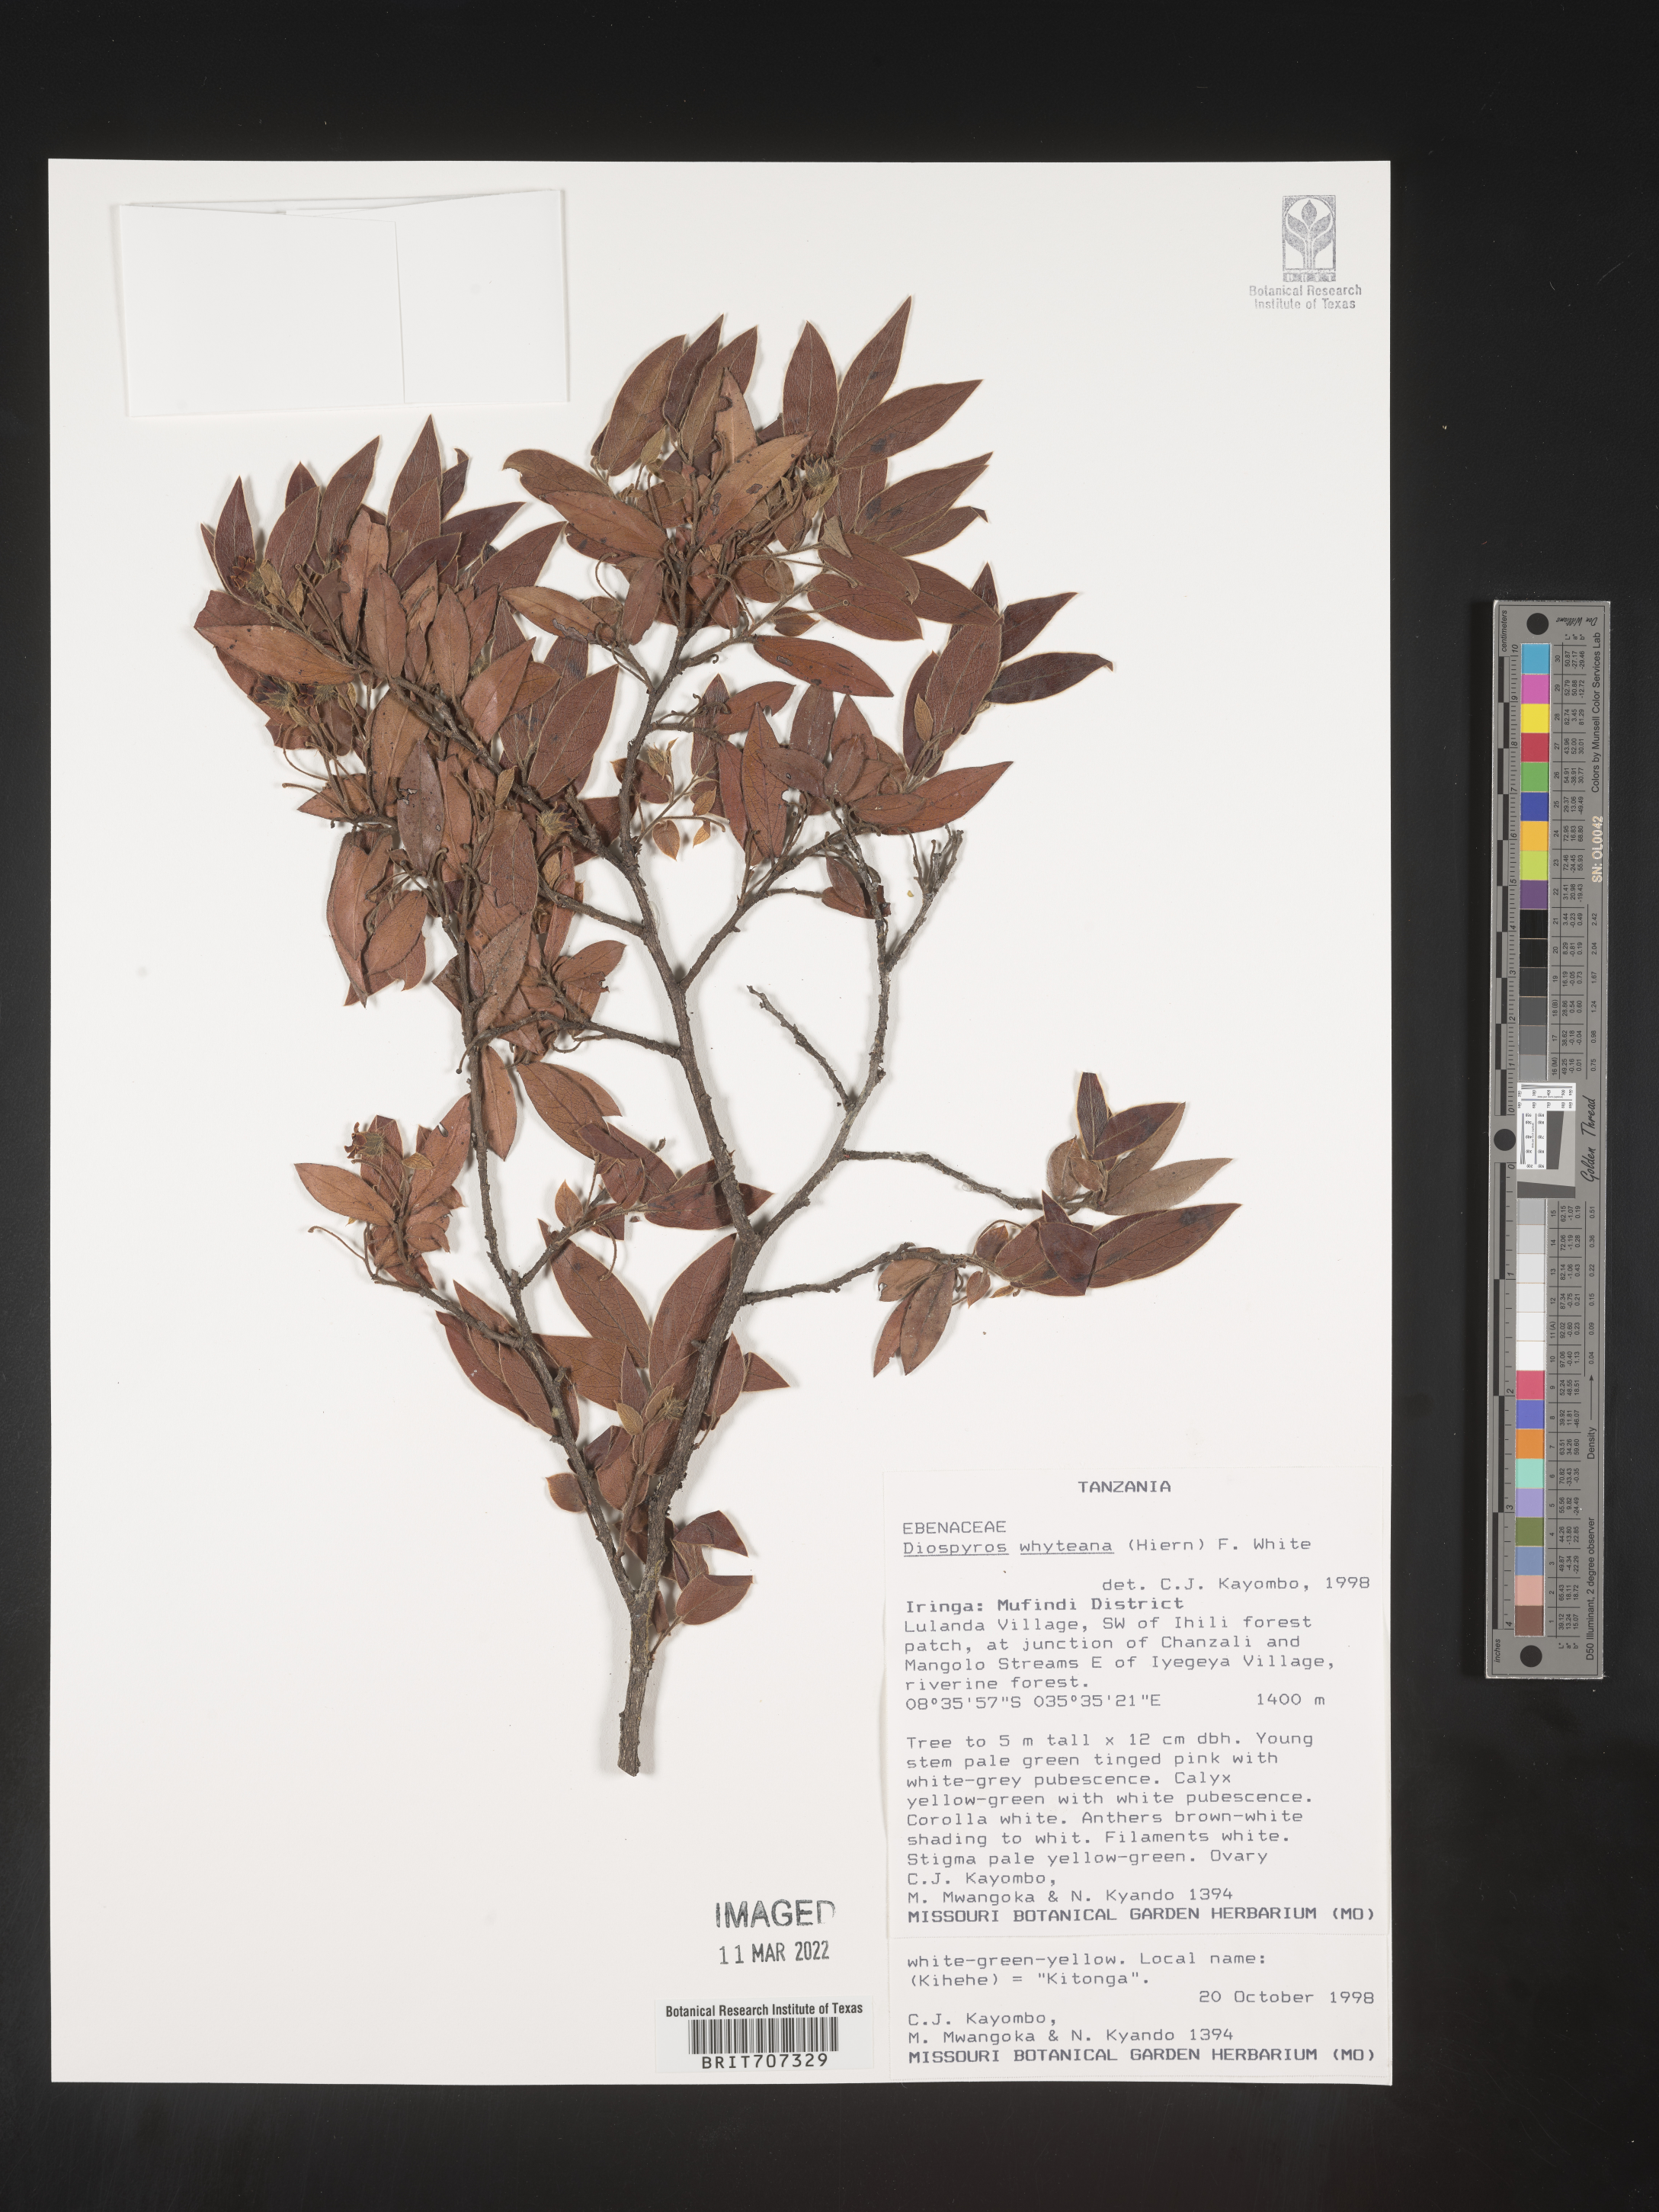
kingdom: Plantae
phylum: Tracheophyta
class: Magnoliopsida
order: Ericales
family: Ebenaceae
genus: Diospyros
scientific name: Diospyros
